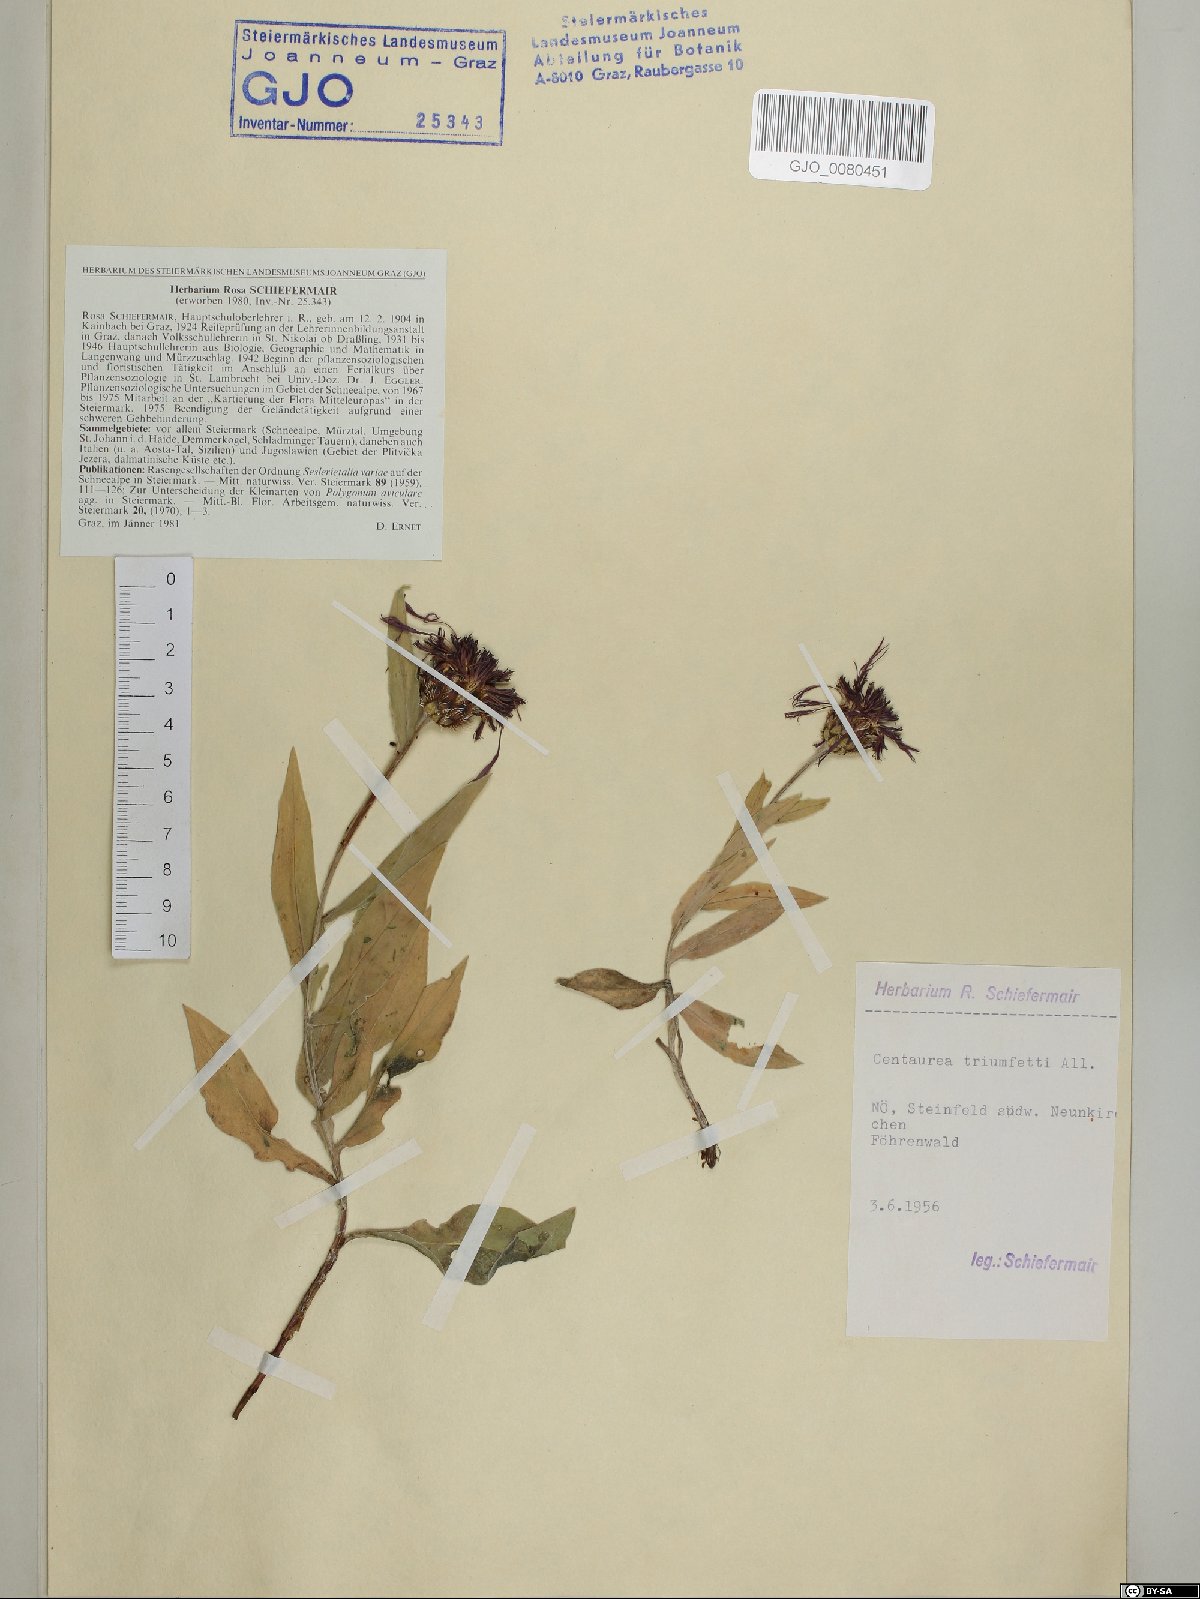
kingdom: Plantae
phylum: Tracheophyta
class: Magnoliopsida
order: Asterales
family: Asteraceae
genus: Centaurea
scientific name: Centaurea triumfettii
